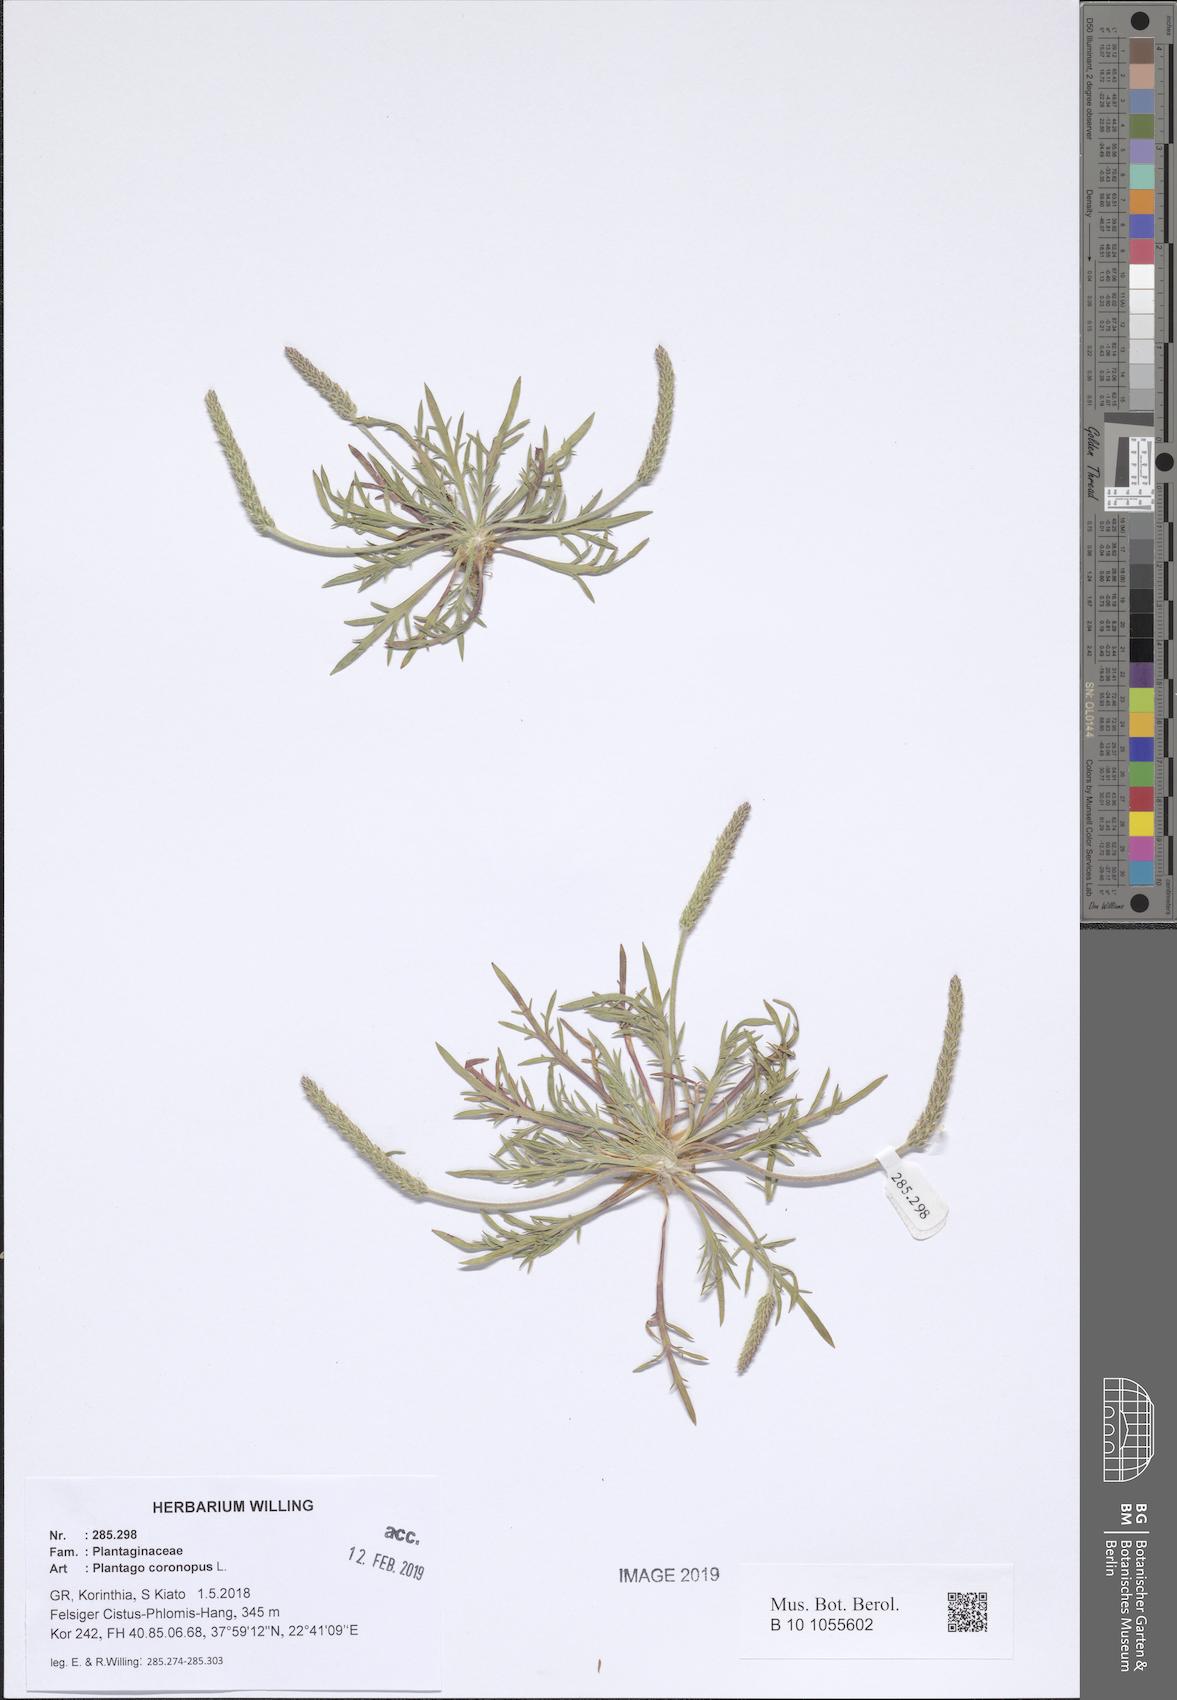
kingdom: Plantae
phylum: Tracheophyta
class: Magnoliopsida
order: Lamiales
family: Plantaginaceae
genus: Plantago
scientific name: Plantago coronopus
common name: Buck's-horn plantain
